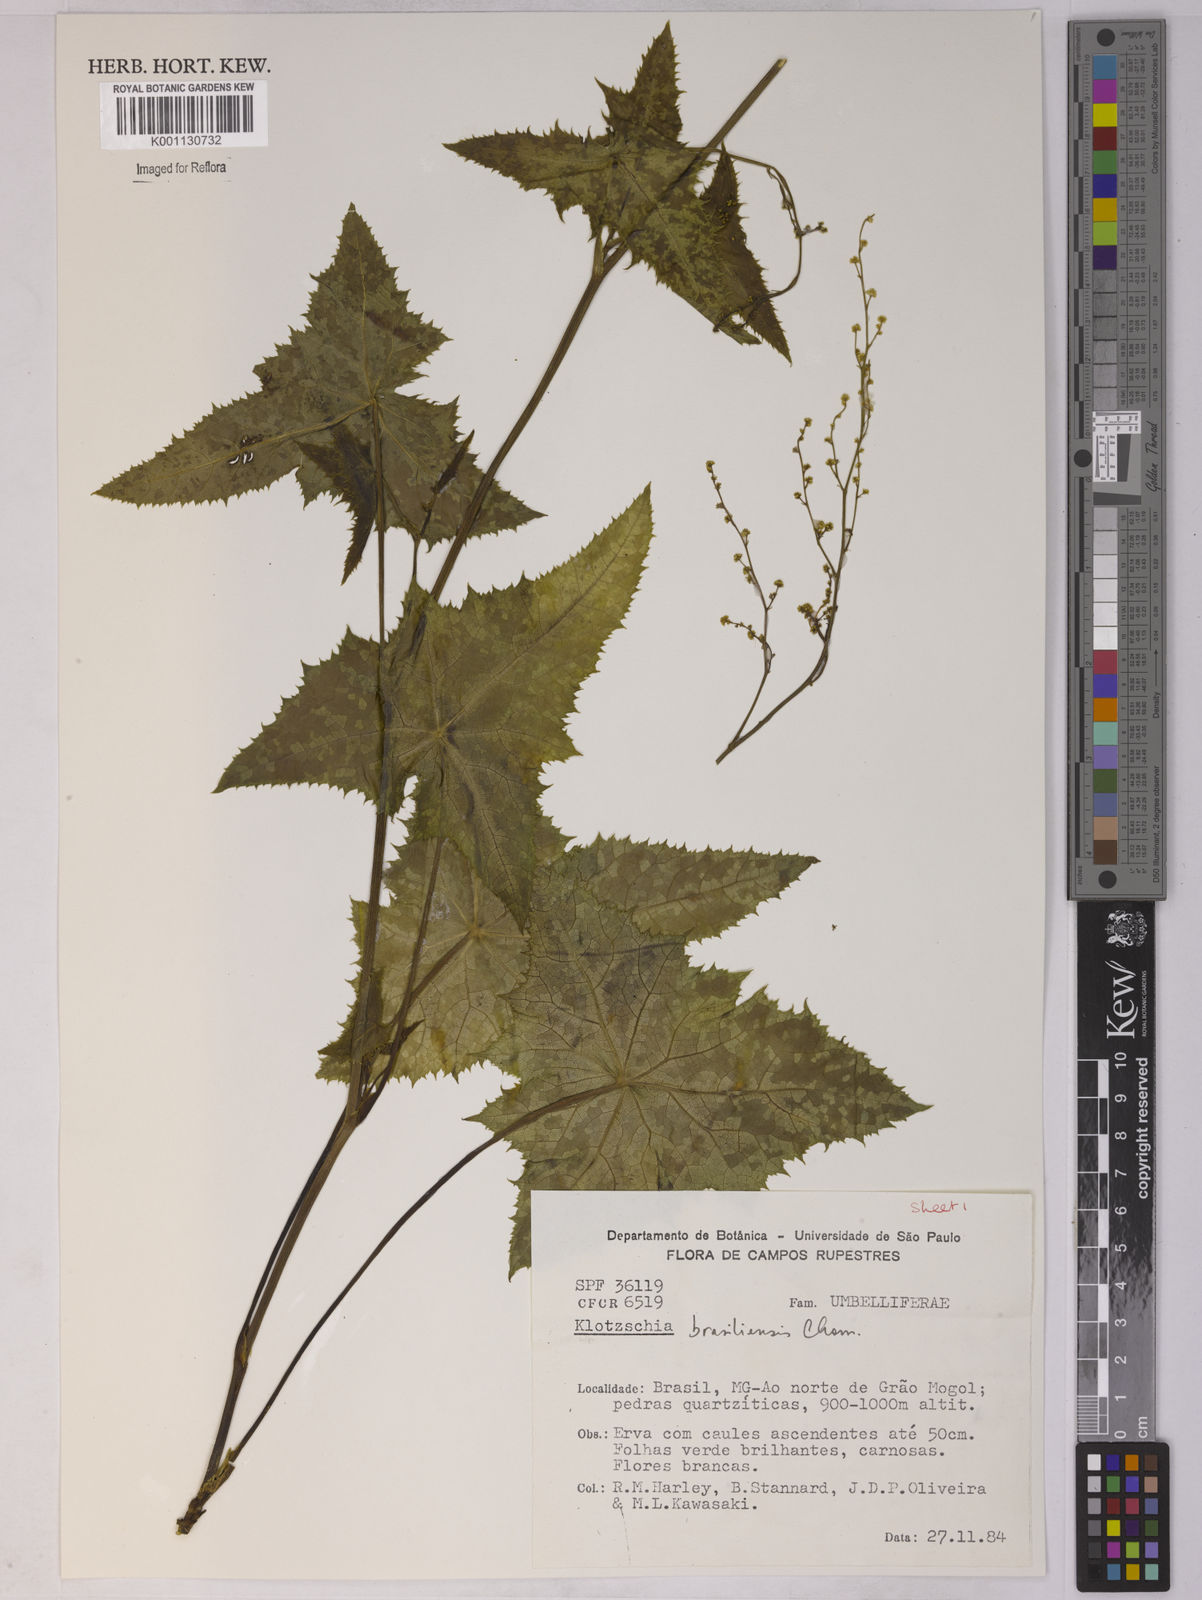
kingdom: Plantae
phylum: Tracheophyta
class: Magnoliopsida
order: Apiales
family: Apiaceae
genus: Klotzschia
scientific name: Klotzschia brasiliensis
